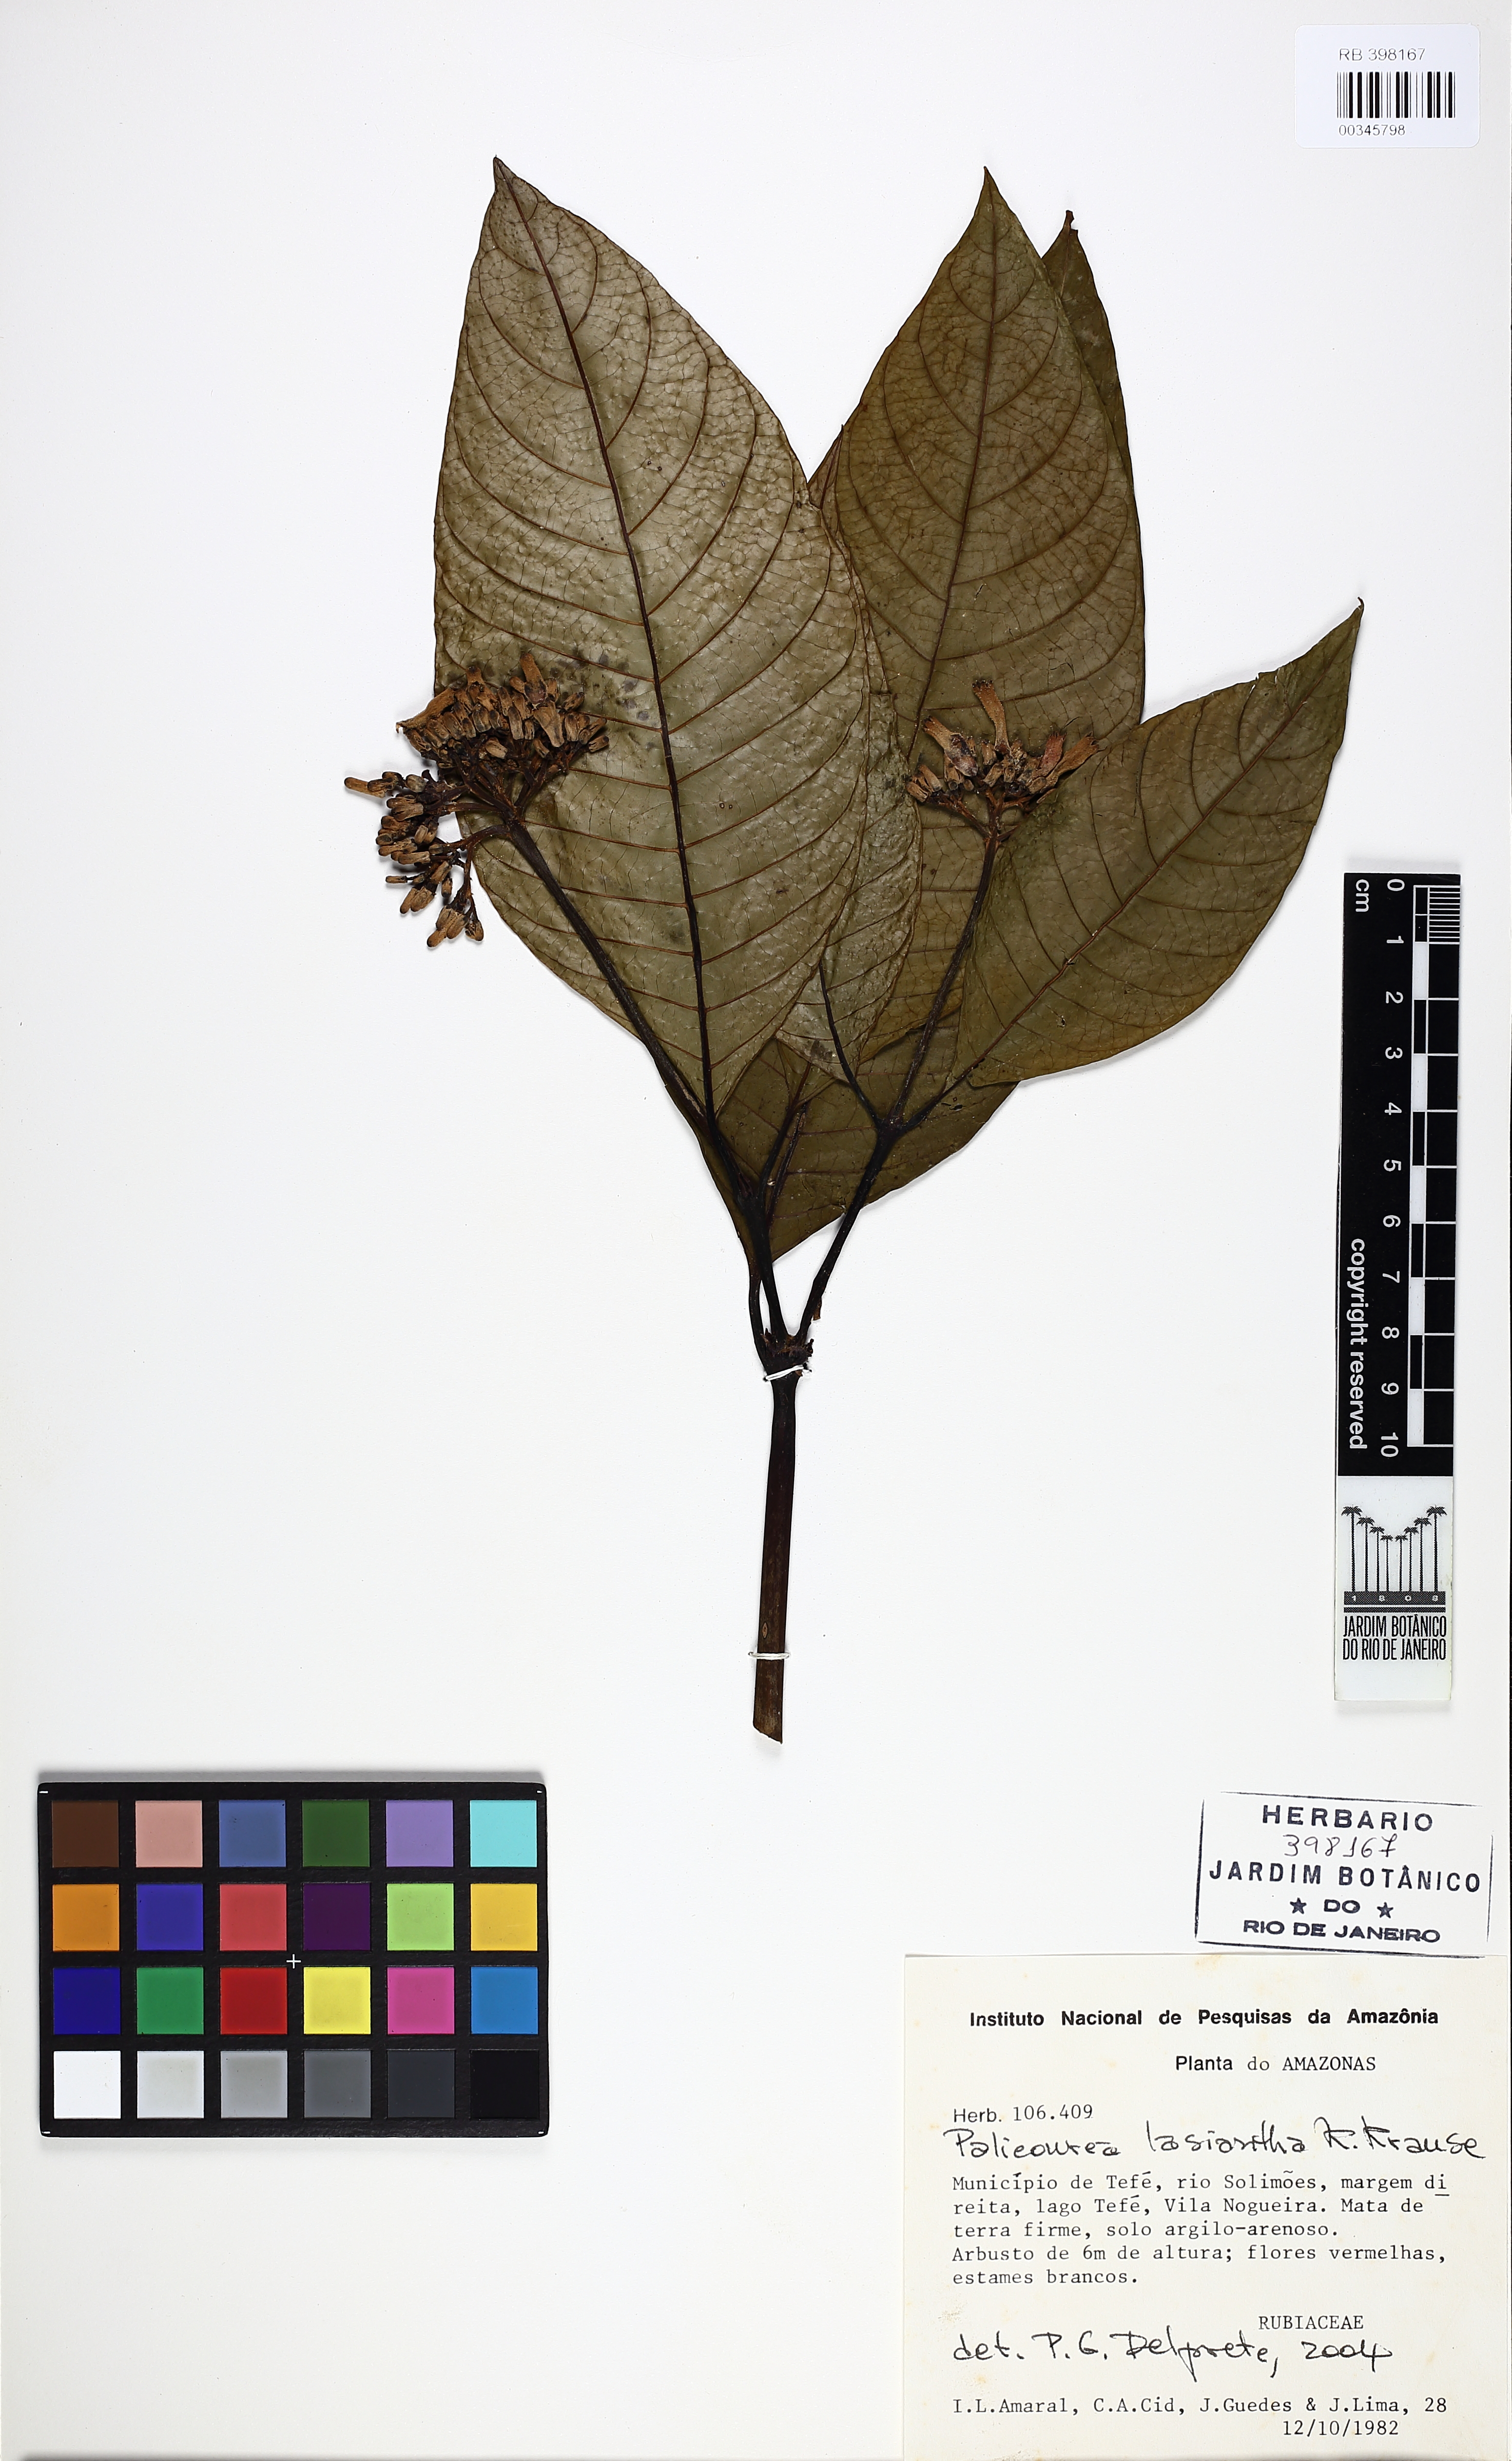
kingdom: Plantae
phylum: Tracheophyta
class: Magnoliopsida
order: Gentianales
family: Rubiaceae
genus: Palicourea
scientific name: Palicourea lasiantha
